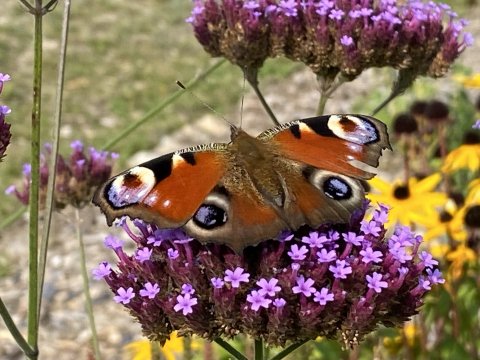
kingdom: Animalia
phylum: Arthropoda
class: Insecta
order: Lepidoptera
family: Nymphalidae
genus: Aglais
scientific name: Aglais io
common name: European Peacock
